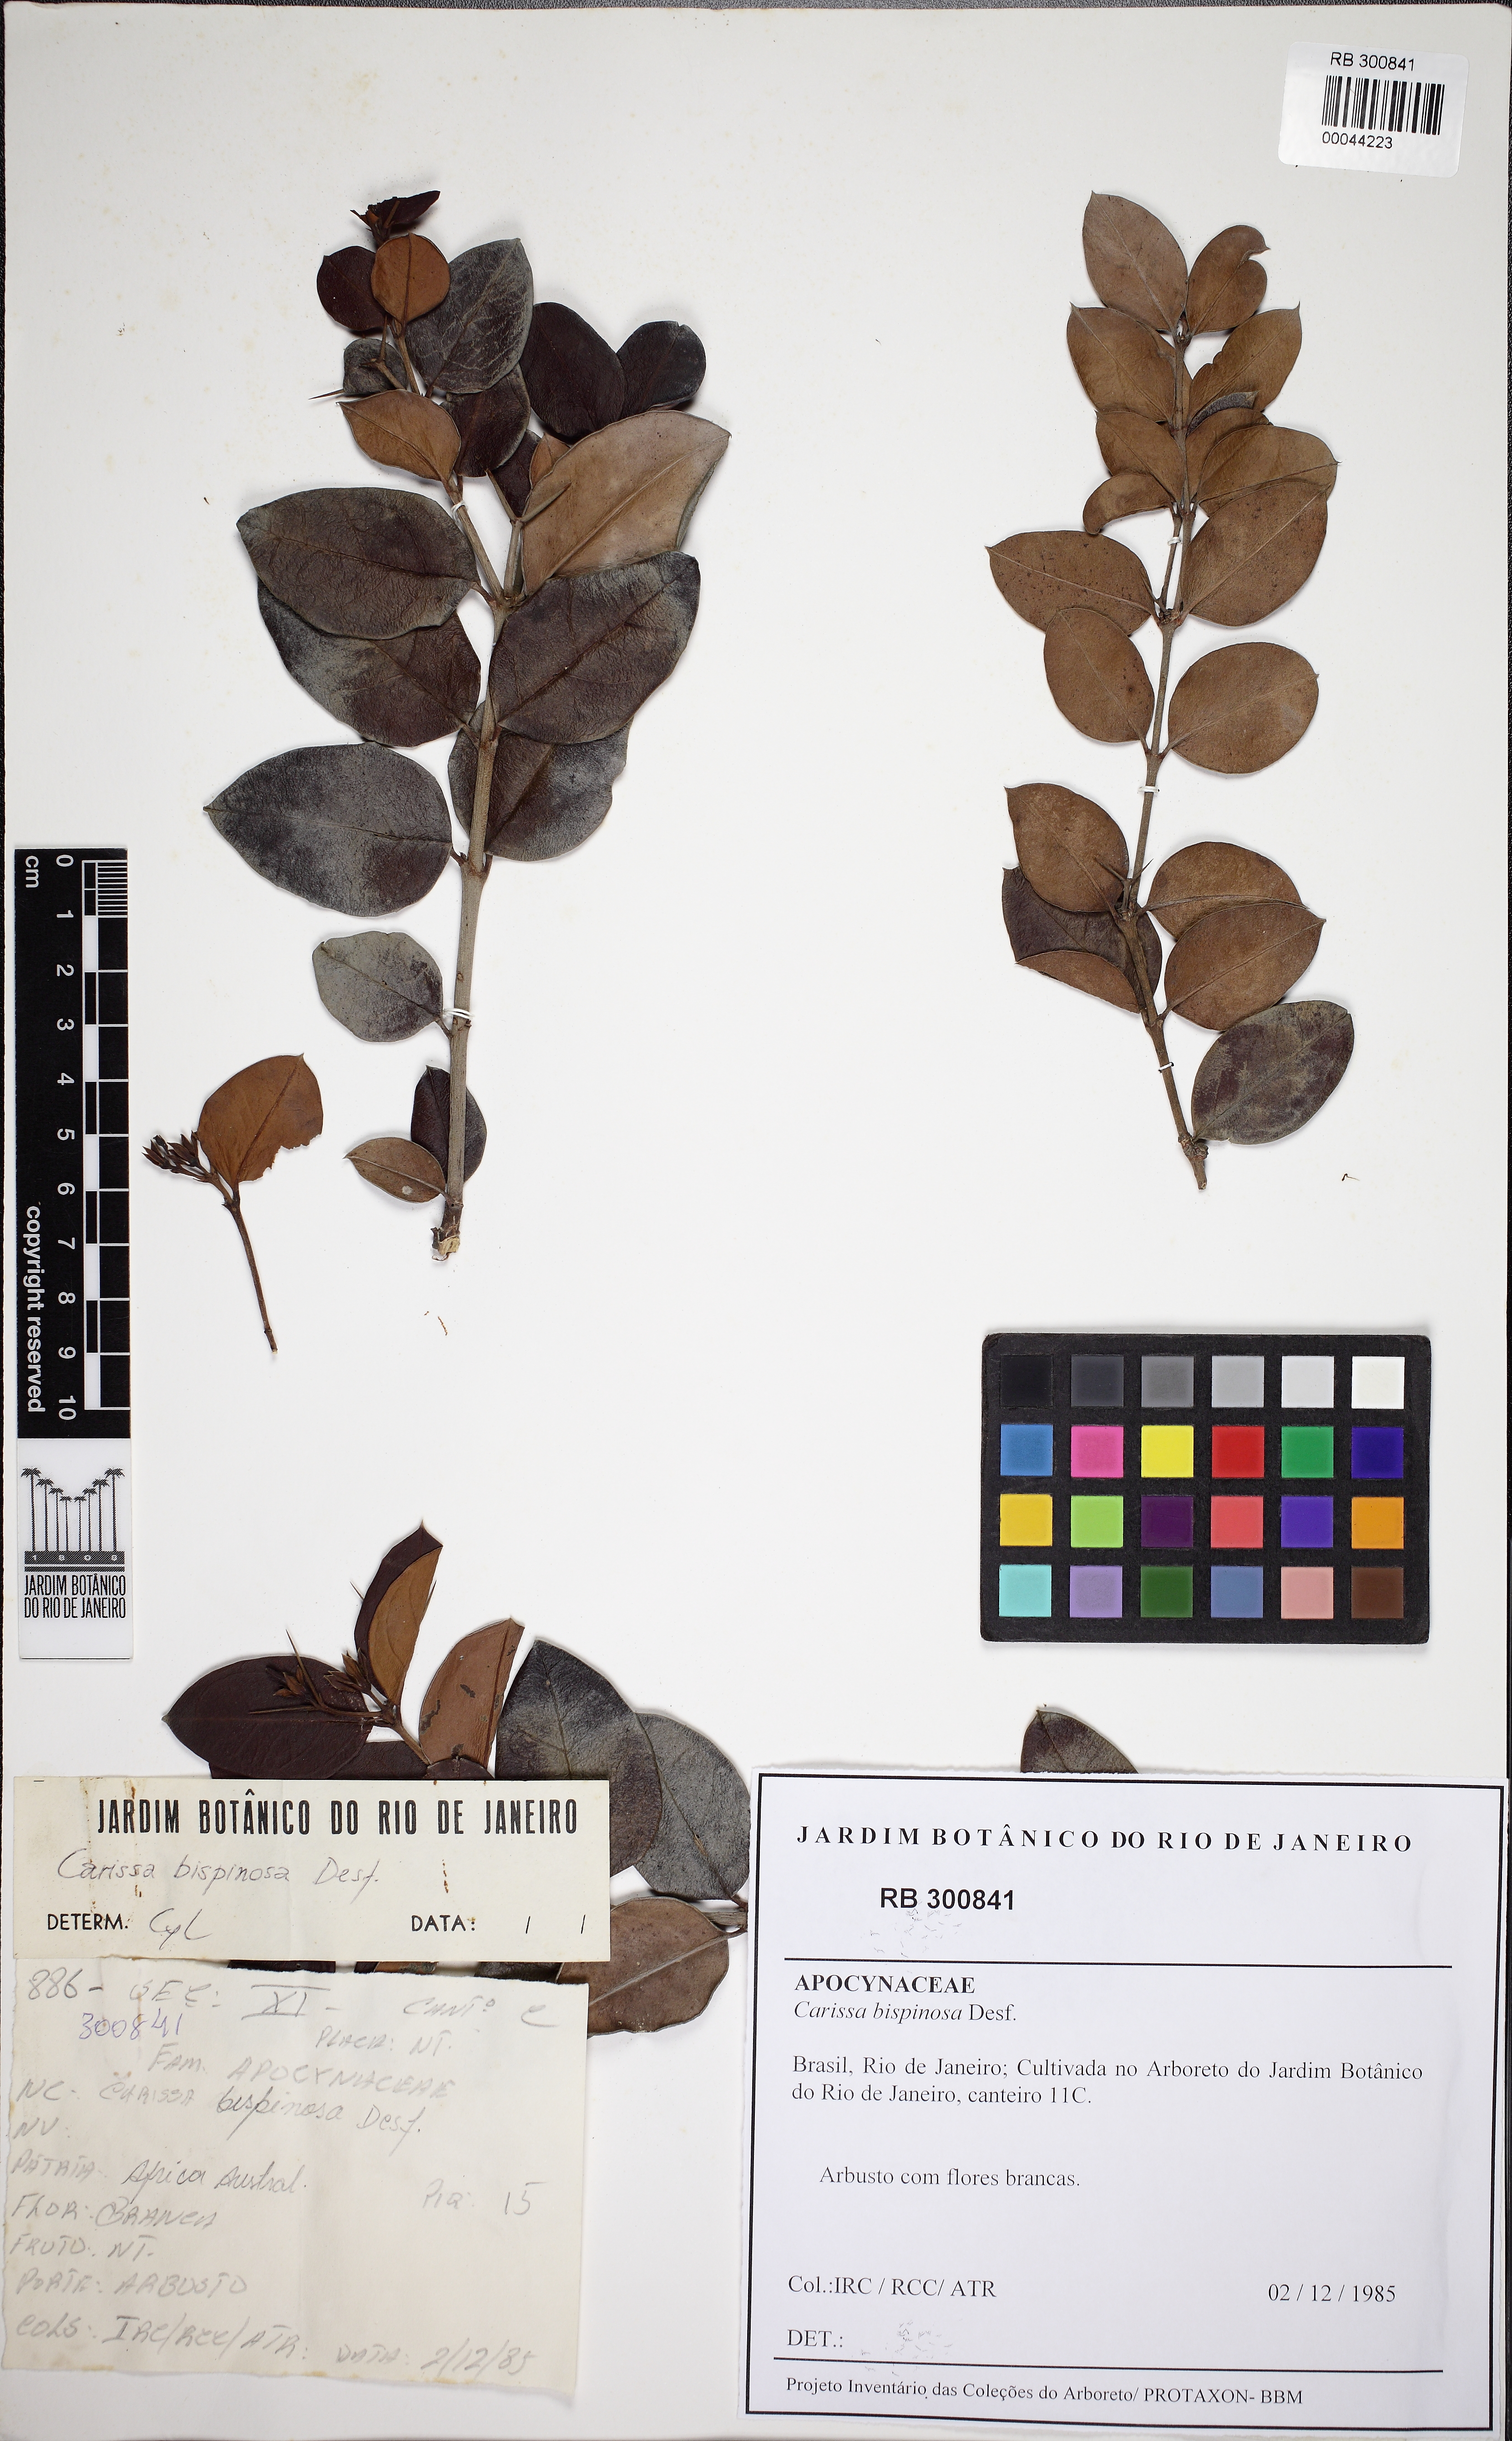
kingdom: Plantae
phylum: Tracheophyta
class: Magnoliopsida
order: Gentianales
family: Apocynaceae
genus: Carissa
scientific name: Carissa bispinosa
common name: Forest num-num
